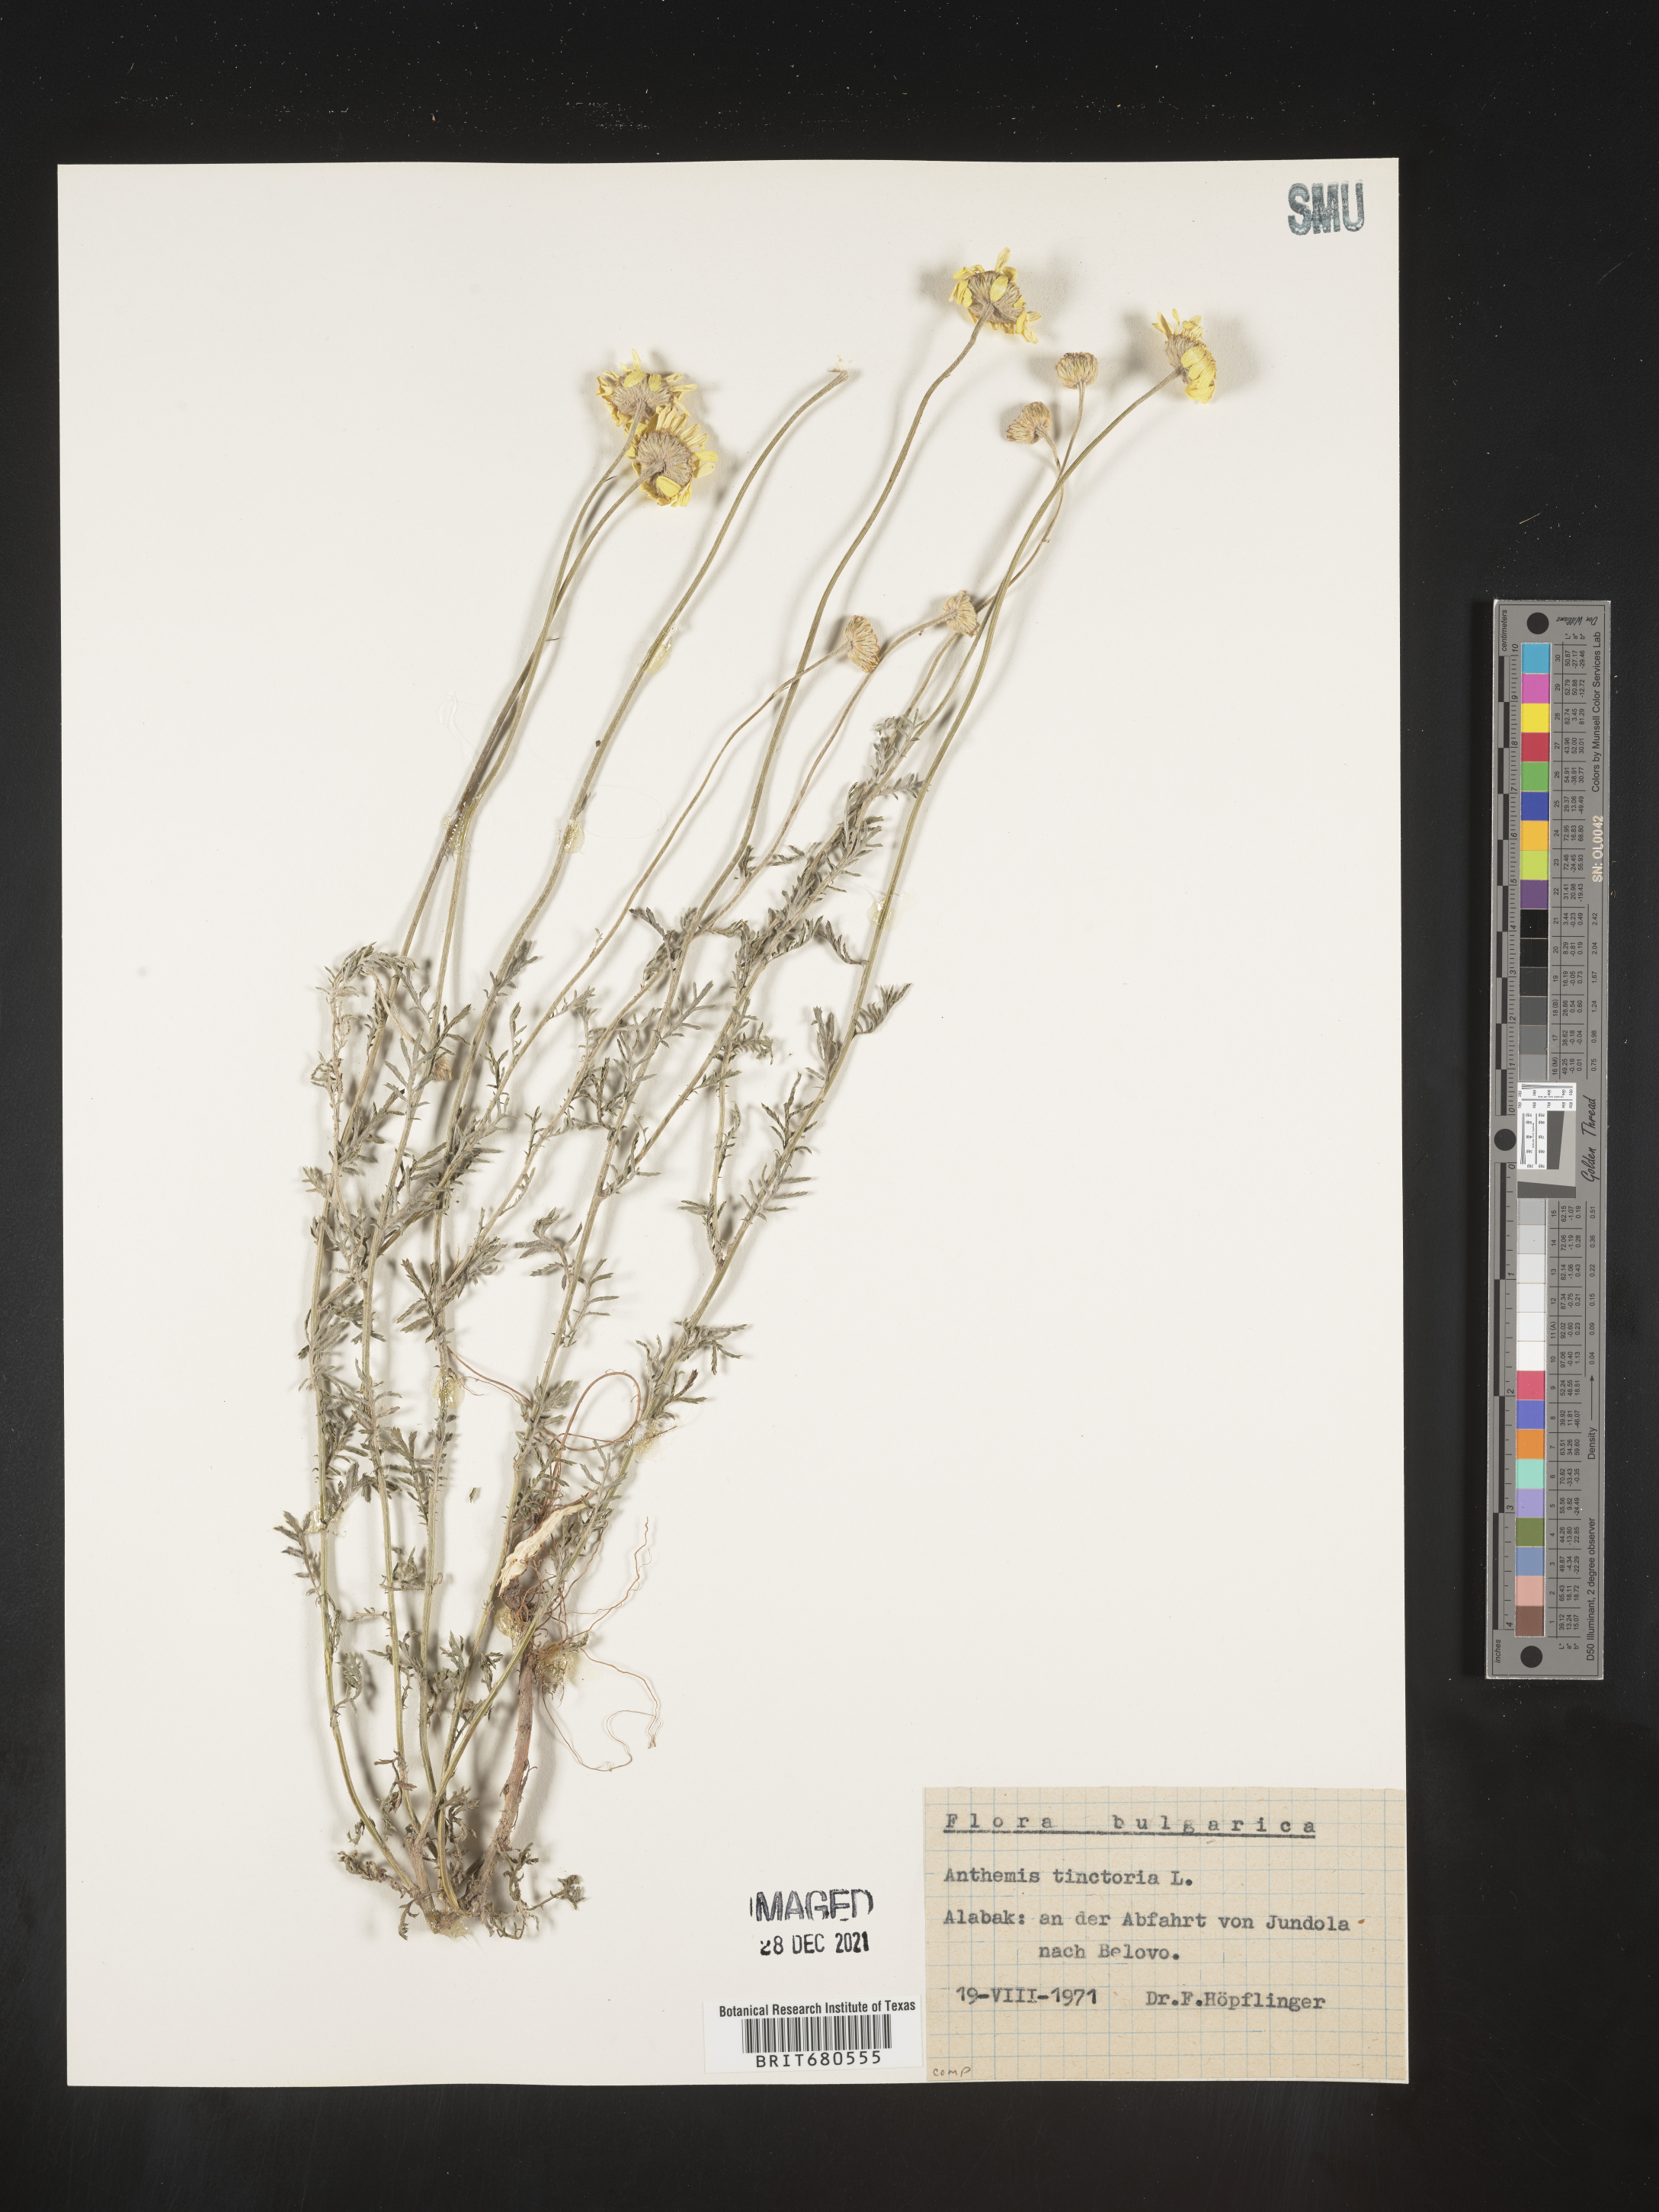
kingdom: Plantae
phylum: Tracheophyta
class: Magnoliopsida
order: Asterales
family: Asteraceae
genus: Anthemis
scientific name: Anthemis
